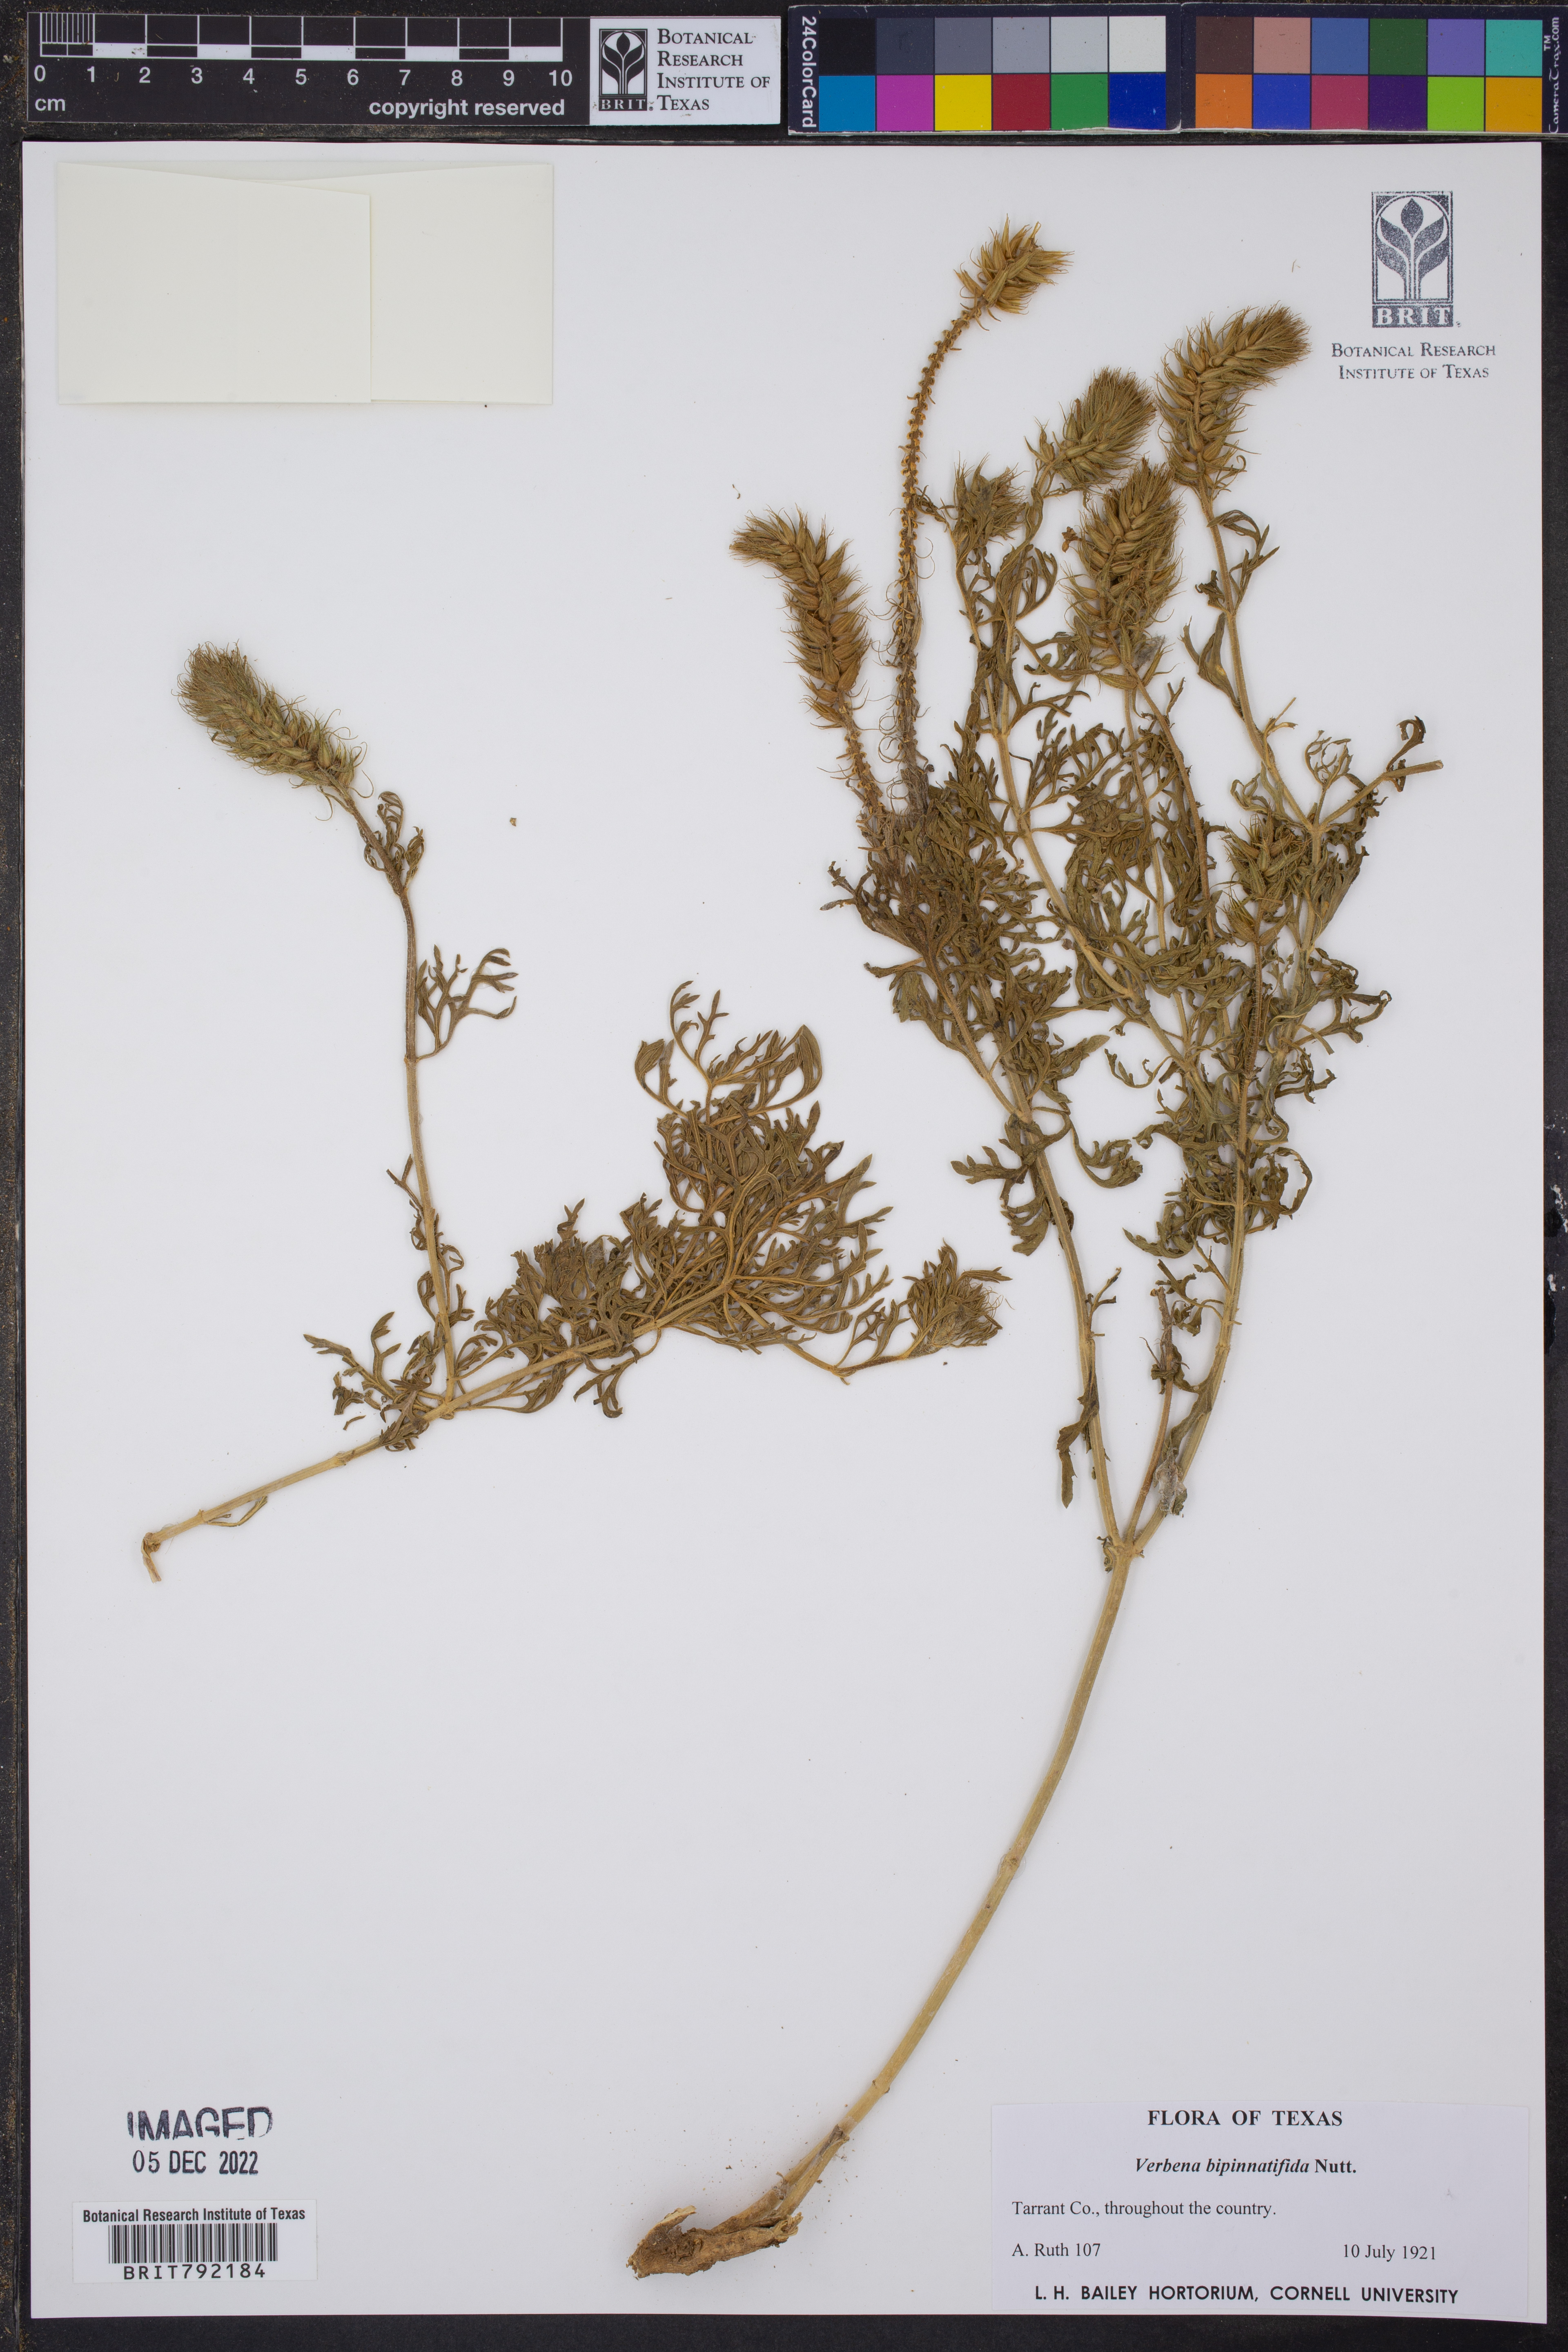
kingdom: Plantae
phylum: Tracheophyta
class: Magnoliopsida
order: Lamiales
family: Verbenaceae
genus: Verbena
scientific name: Verbena bipinnatifida
